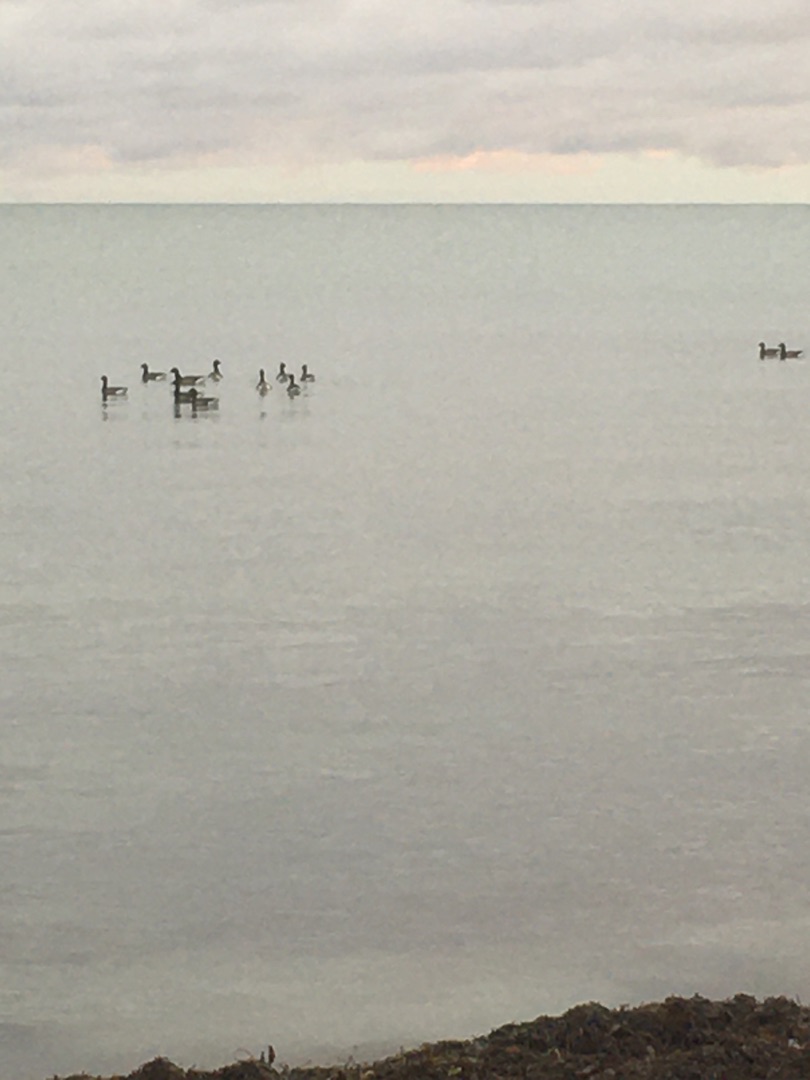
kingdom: Animalia
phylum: Chordata
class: Aves
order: Anseriformes
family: Anatidae
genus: Branta
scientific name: Branta bernicla
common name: Knortegås
